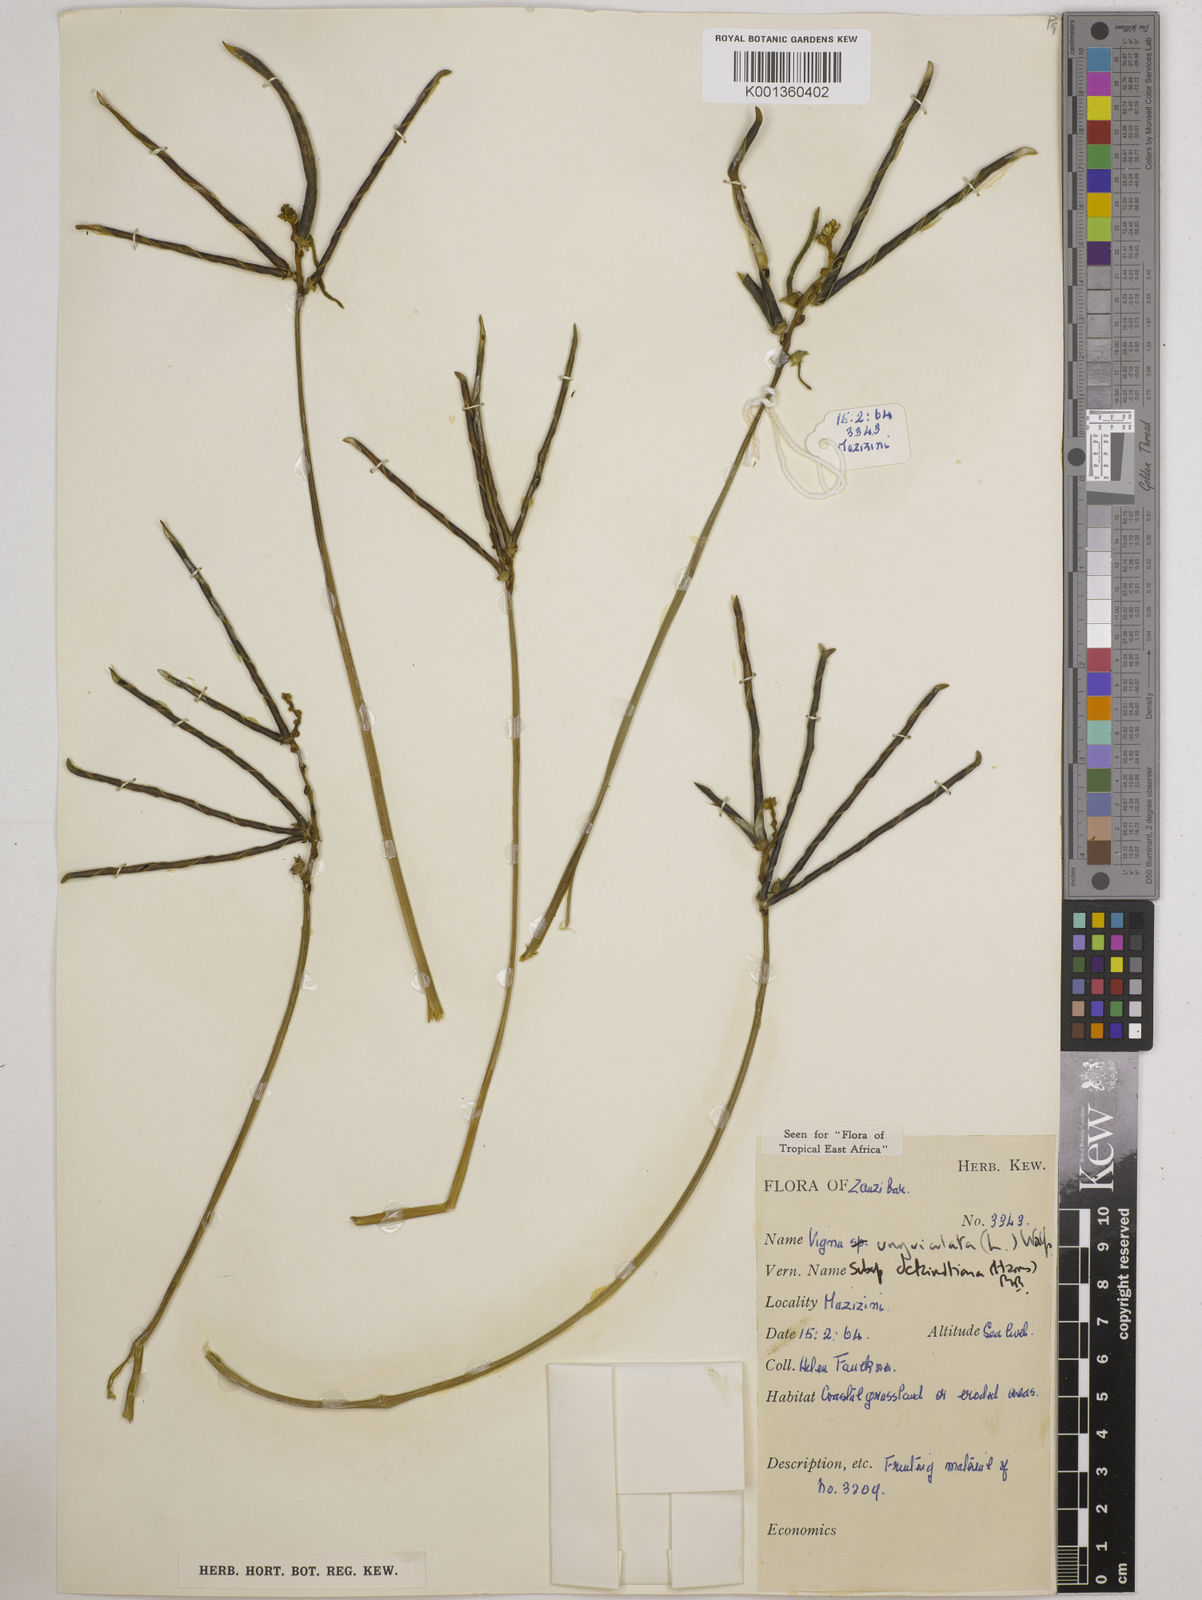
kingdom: Plantae
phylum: Tracheophyta
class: Magnoliopsida
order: Fabales
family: Fabaceae
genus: Vigna
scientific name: Vigna
